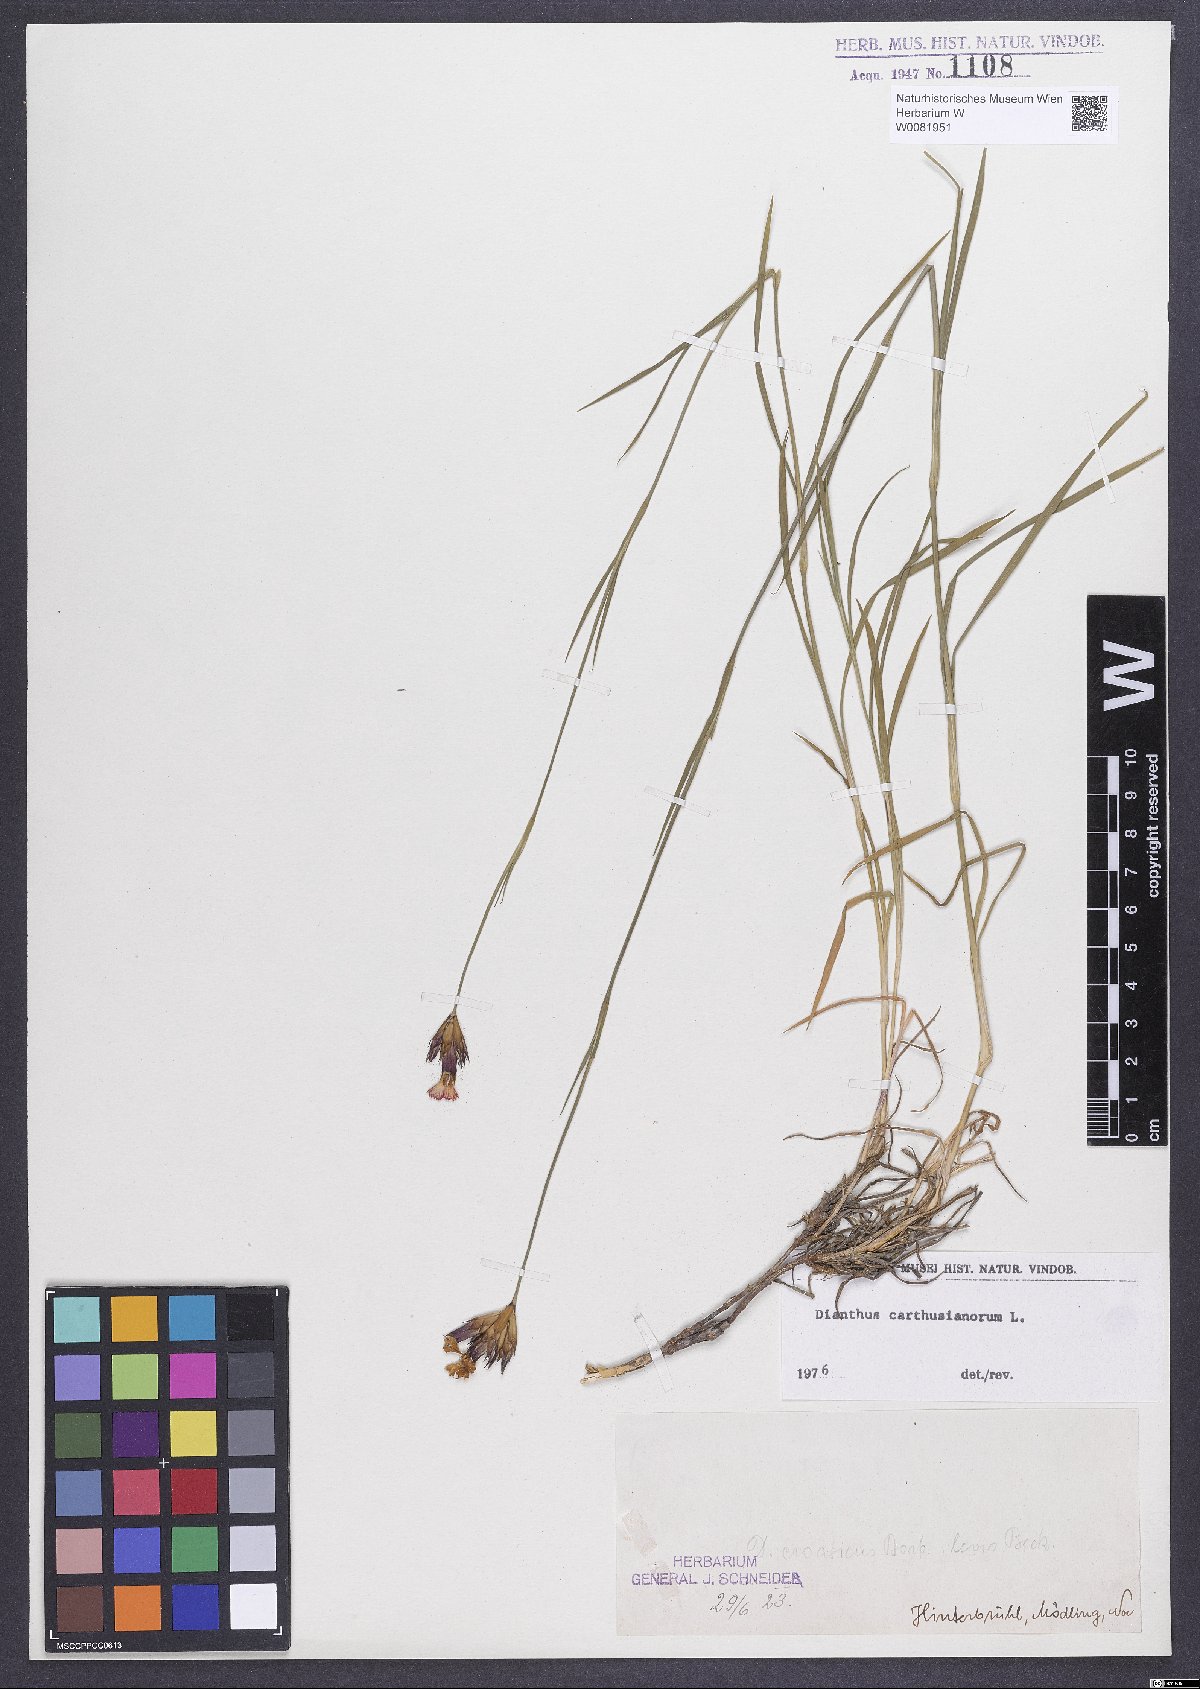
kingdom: Plantae
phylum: Tracheophyta
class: Magnoliopsida
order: Caryophyllales
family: Caryophyllaceae
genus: Dianthus
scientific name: Dianthus carthusianorum
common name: Carthusian pink
